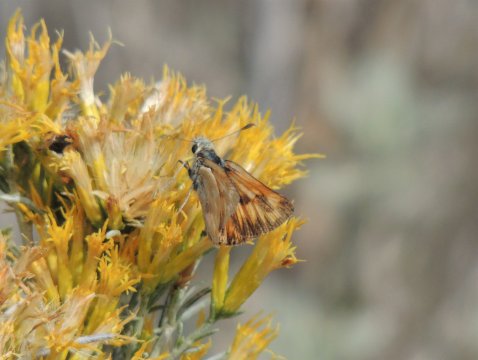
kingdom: Animalia
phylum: Arthropoda
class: Insecta
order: Lepidoptera
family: Hesperiidae
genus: Ochlodes
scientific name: Ochlodes sylvanoides
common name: Woodland Skipper
